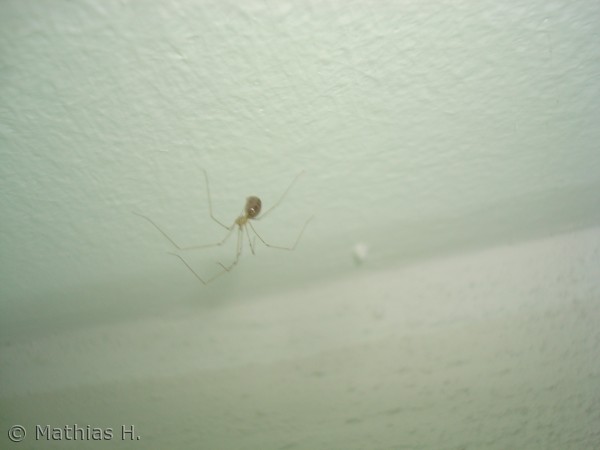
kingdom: Animalia
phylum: Arthropoda
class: Arachnida
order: Araneae
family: Pholcidae
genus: Pholcus
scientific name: Pholcus phalangioides
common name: Mejeredderkop
